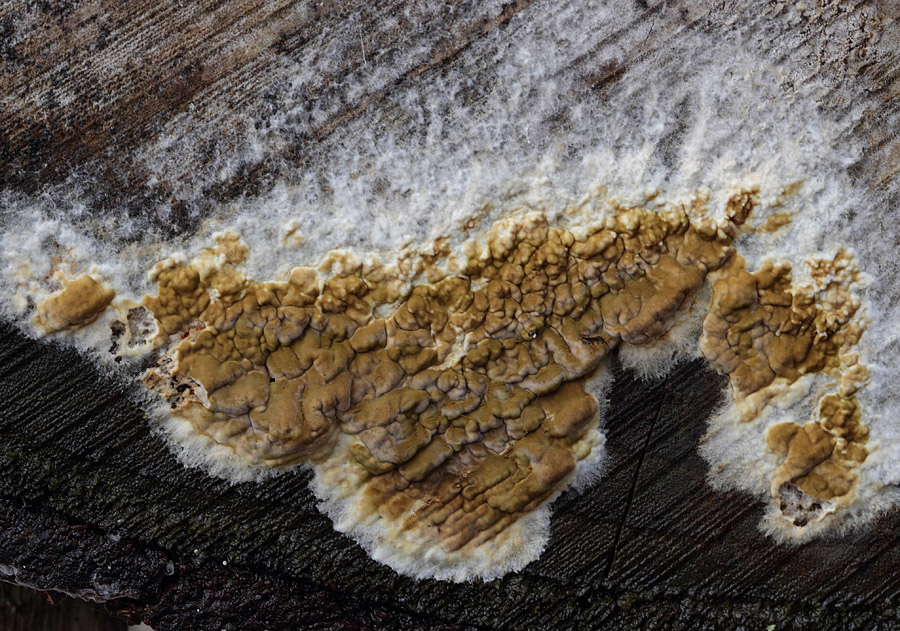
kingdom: Fungi
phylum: Basidiomycota
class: Agaricomycetes
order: Boletales
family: Coniophoraceae
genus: Coniophora
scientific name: Coniophora puteana
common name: gul tømmersvamp
